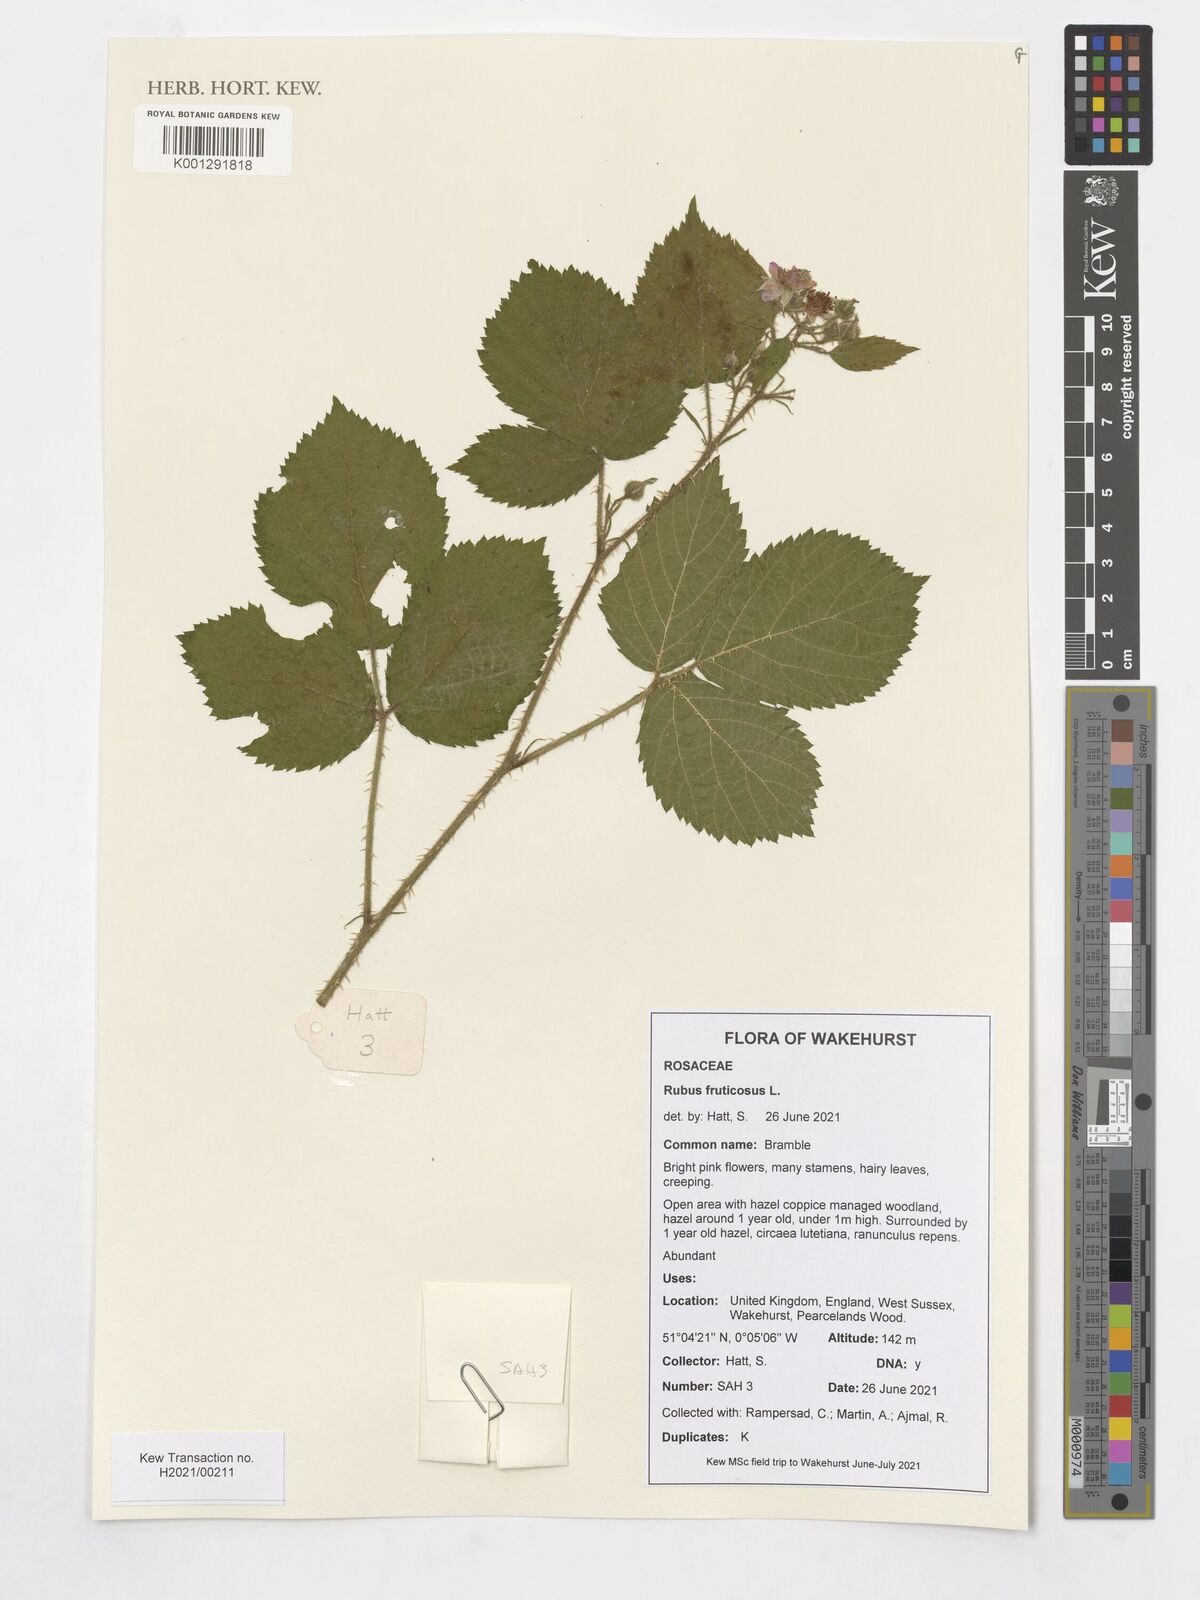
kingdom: Plantae
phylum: Tracheophyta
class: Magnoliopsida
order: Rosales
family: Rosaceae
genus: Rubus
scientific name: Rubus fruticosus
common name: Blackberry, bramble
